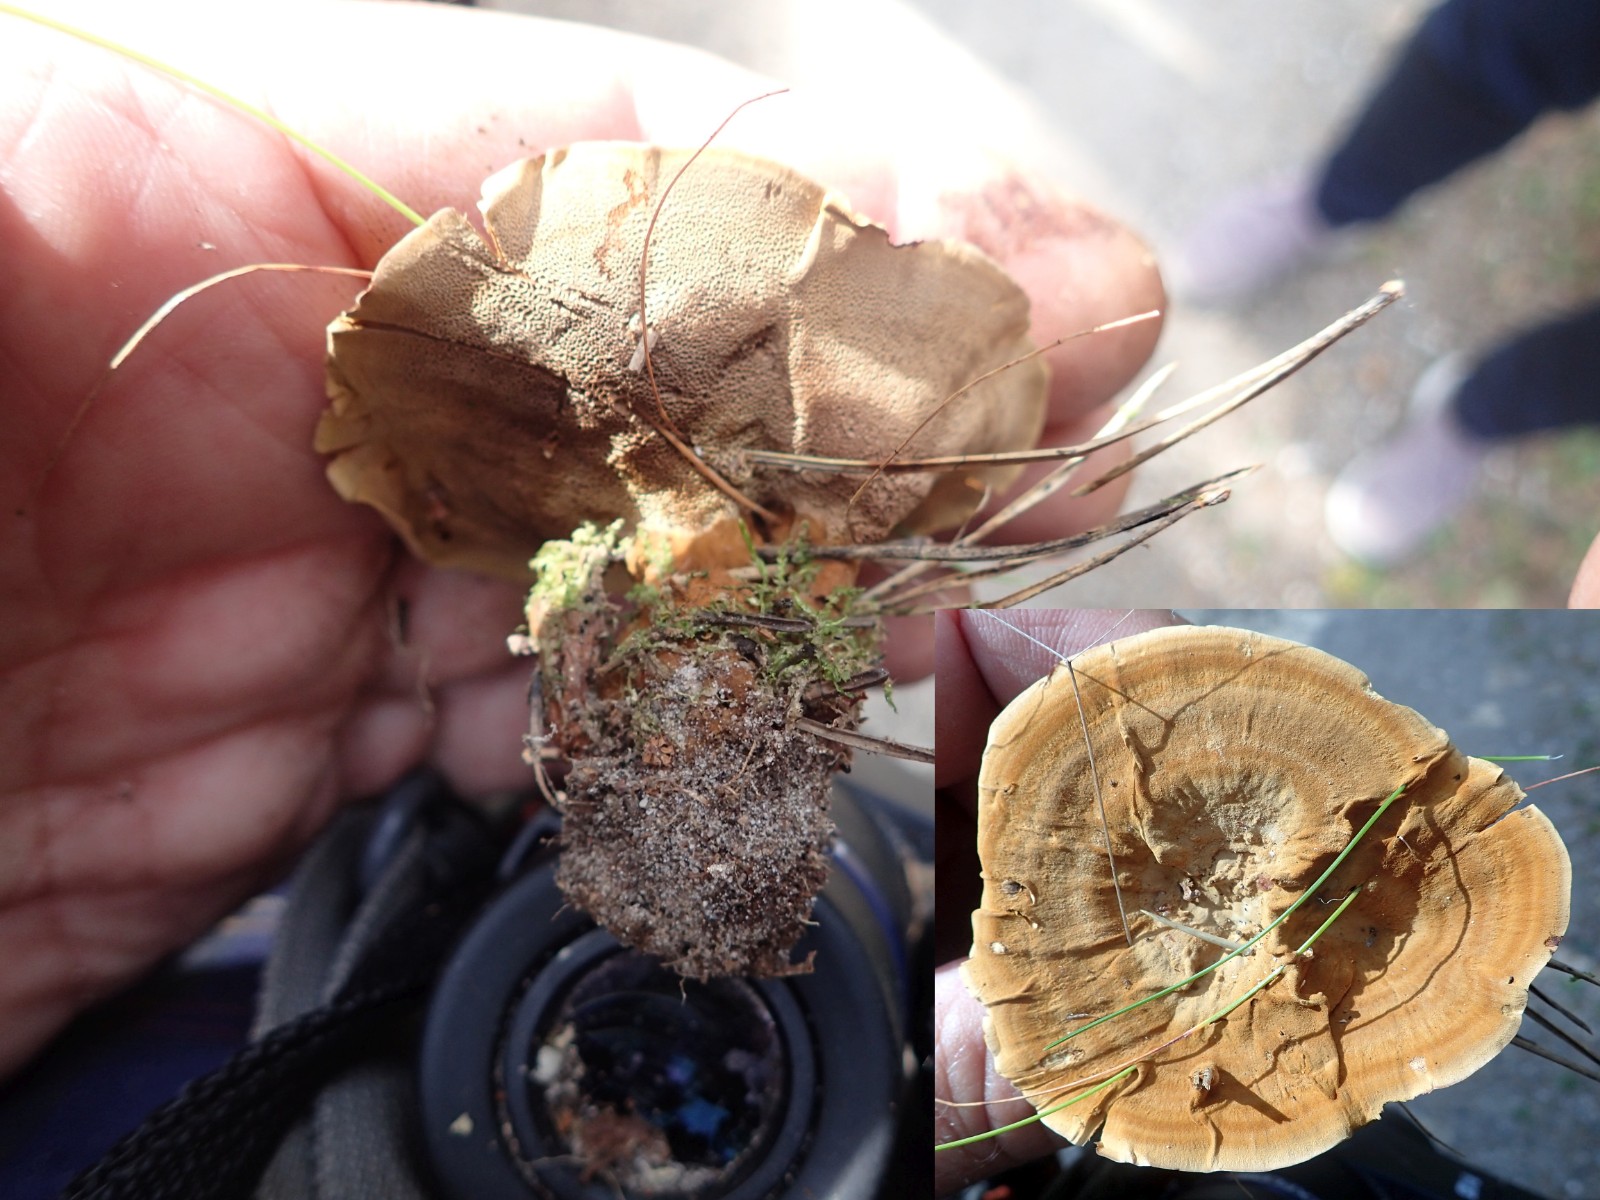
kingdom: Fungi
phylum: Basidiomycota
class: Agaricomycetes
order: Hymenochaetales
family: Hymenochaetaceae
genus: Coltricia
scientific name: Coltricia perennis
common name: almindelig sandporesvamp
